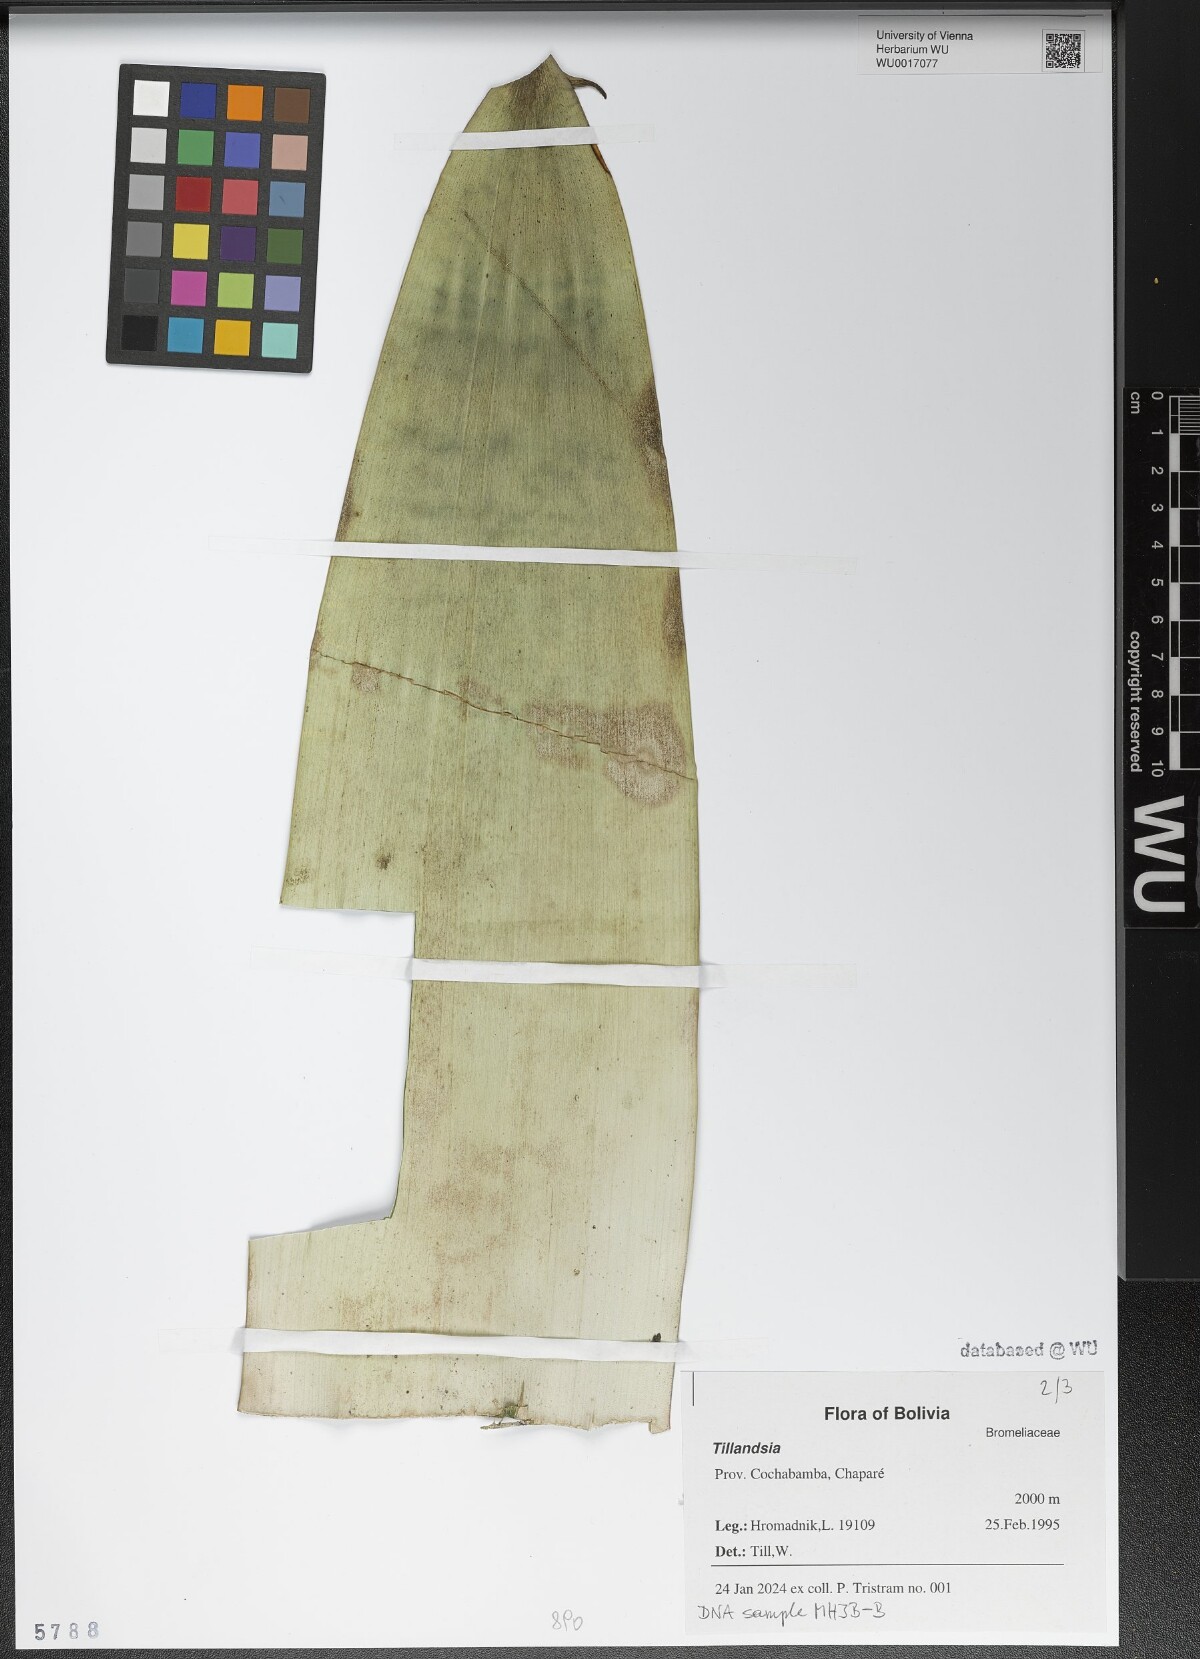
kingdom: Plantae
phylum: Tracheophyta
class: Liliopsida
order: Poales
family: Bromeliaceae
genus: Tillandsia
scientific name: Tillandsia
